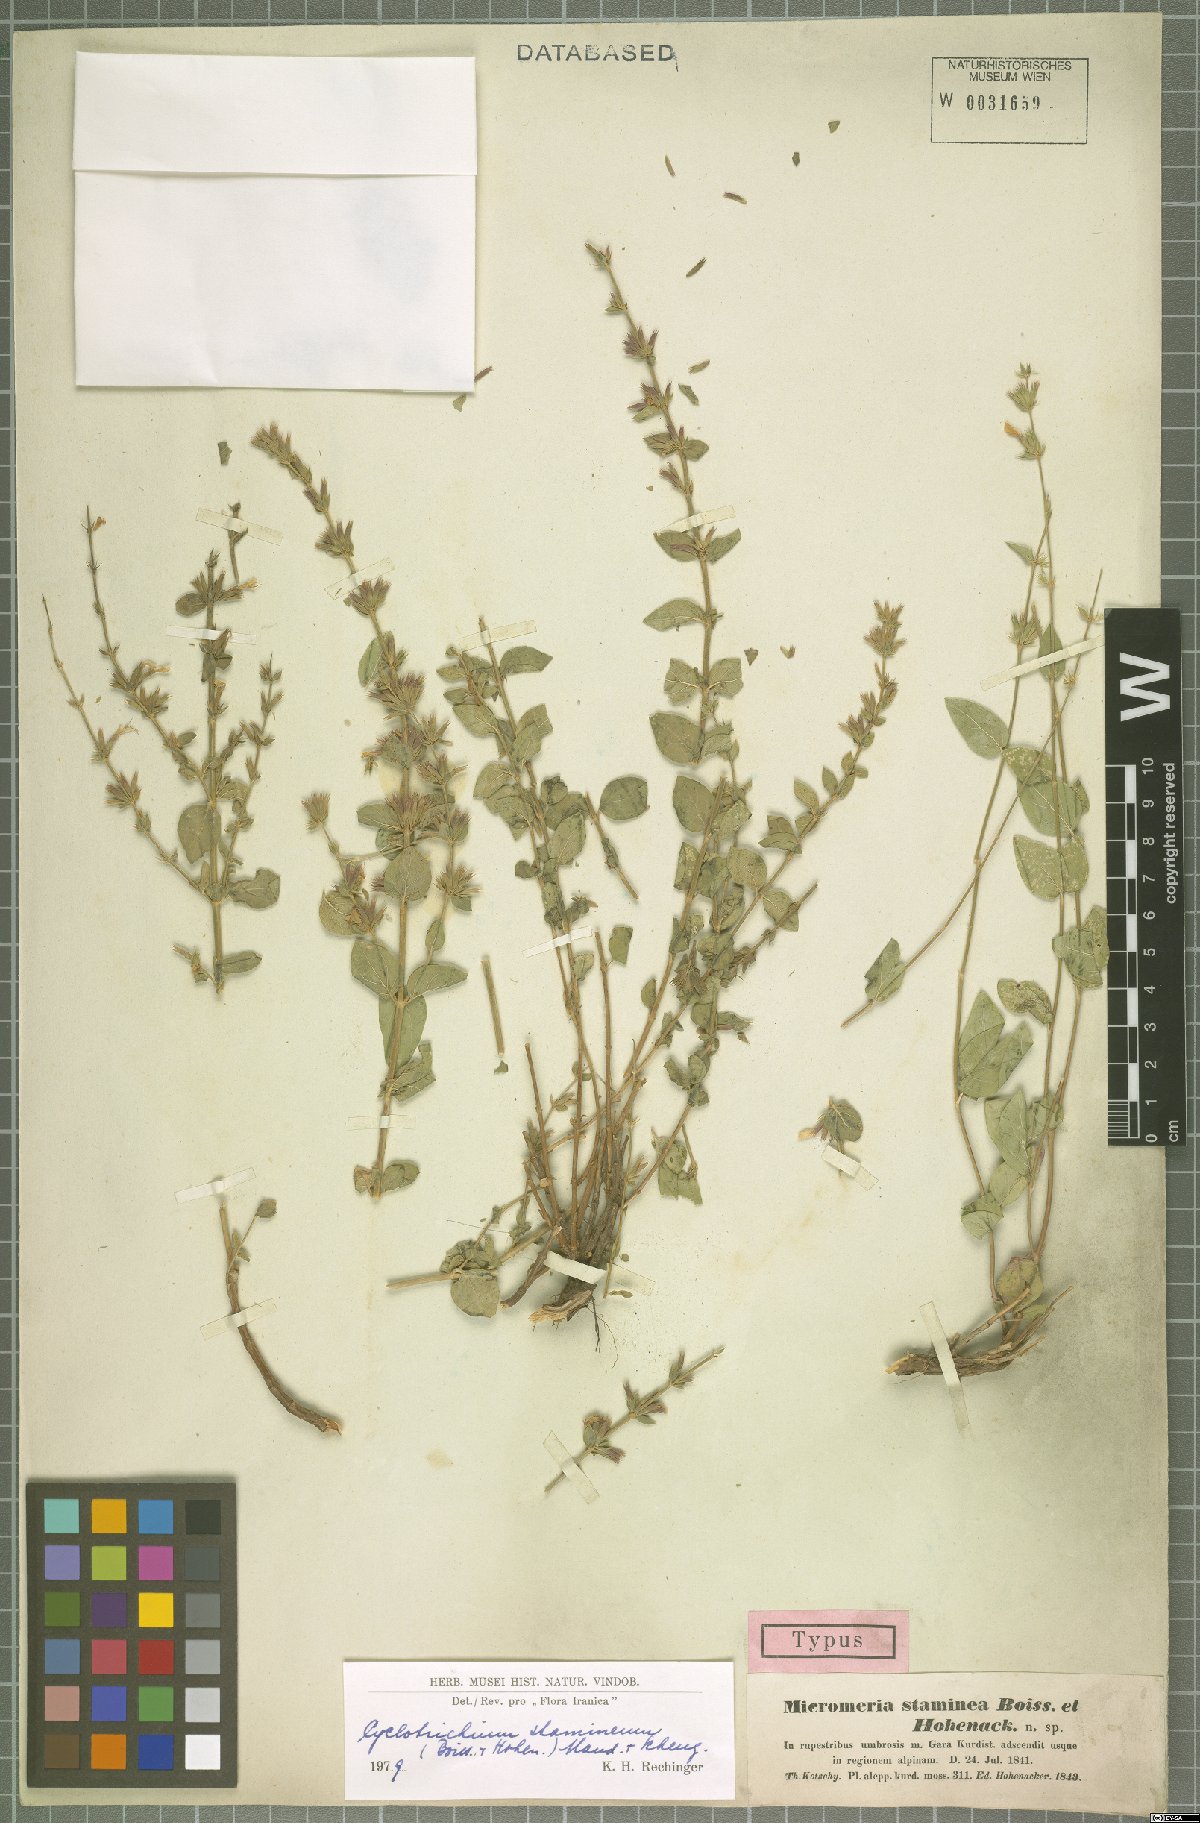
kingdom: Plantae
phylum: Tracheophyta
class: Magnoliopsida
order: Lamiales
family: Lamiaceae
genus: Cyclotrichium
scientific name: Cyclotrichium stamineum
